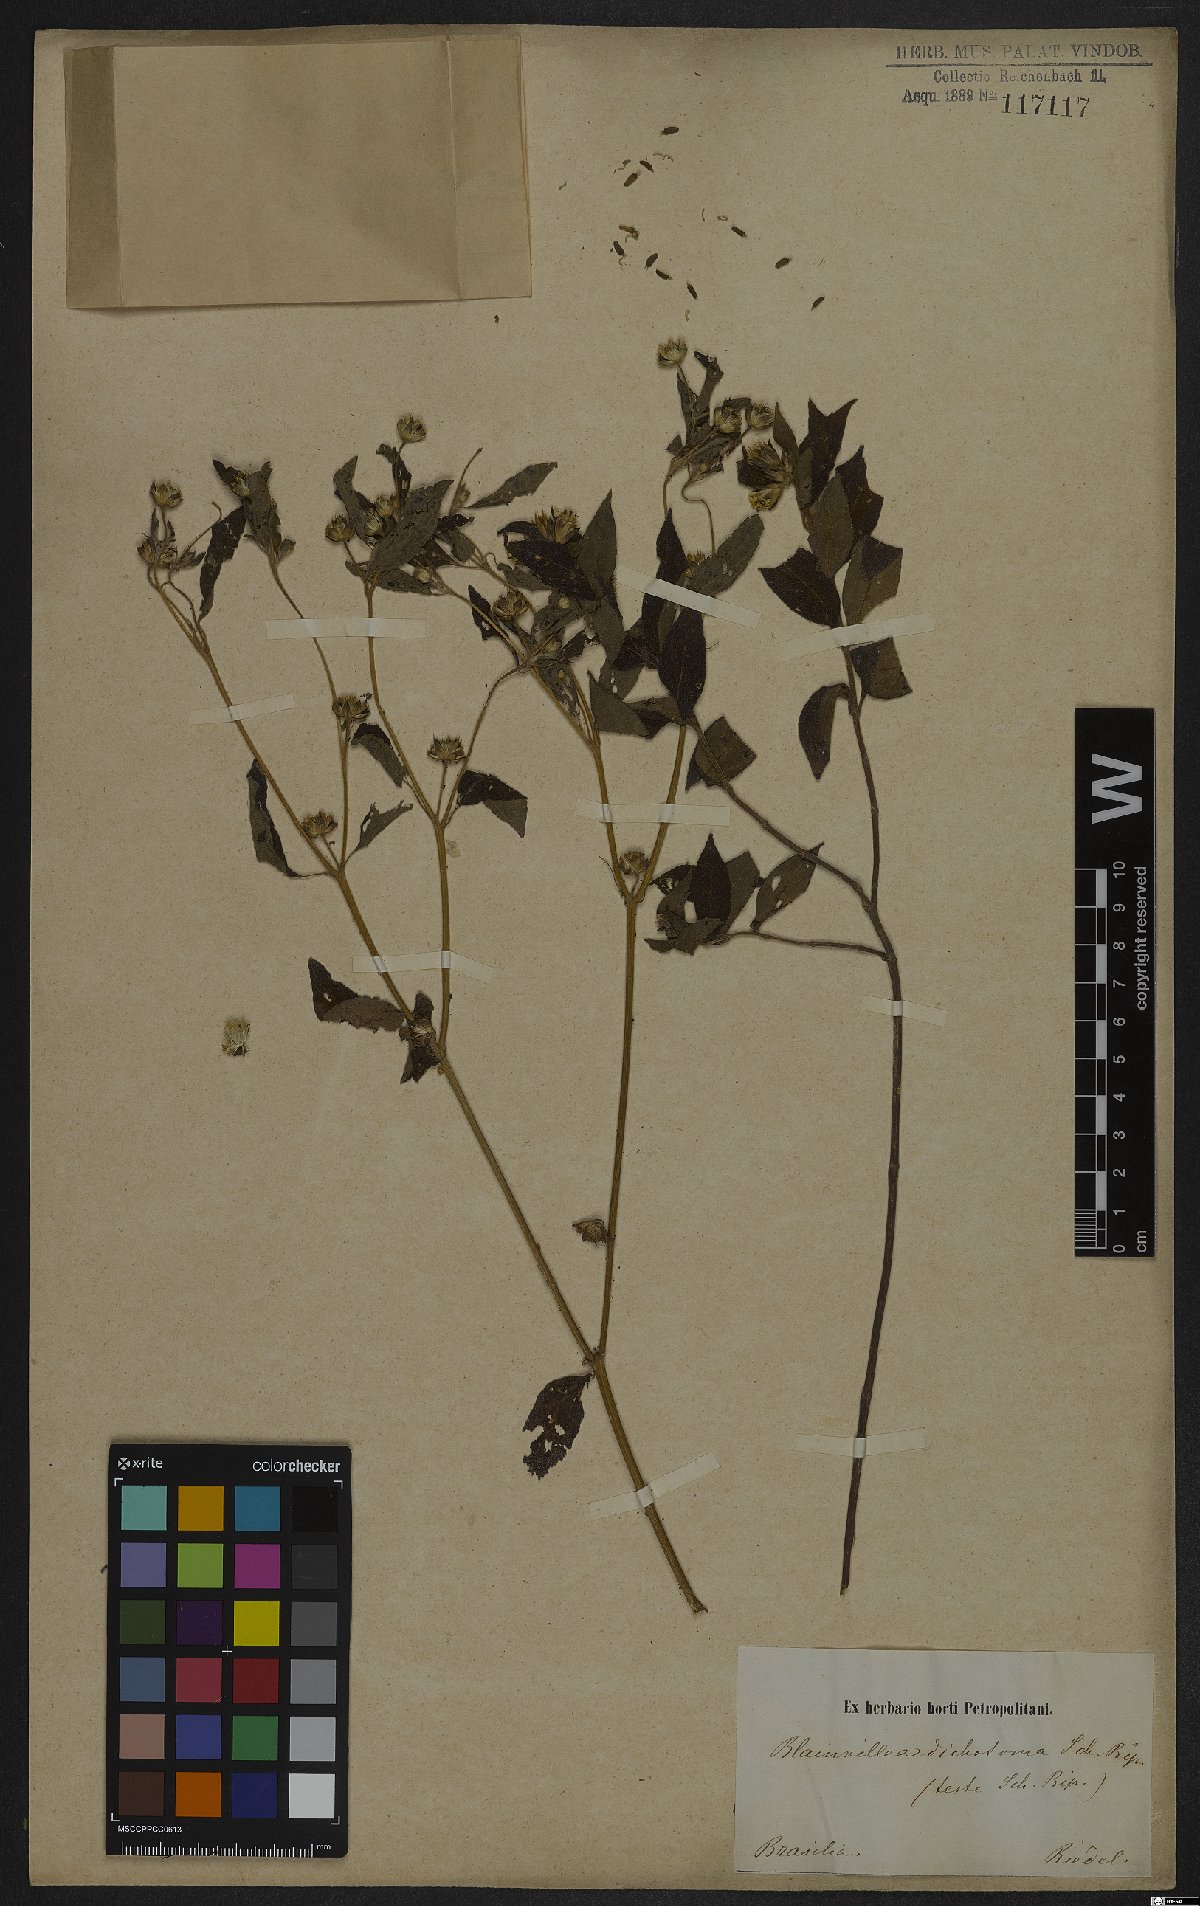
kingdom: Plantae
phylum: Tracheophyta
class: Magnoliopsida
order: Asterales
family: Asteraceae
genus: Blainvillea
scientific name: Blainvillea dichotoma
